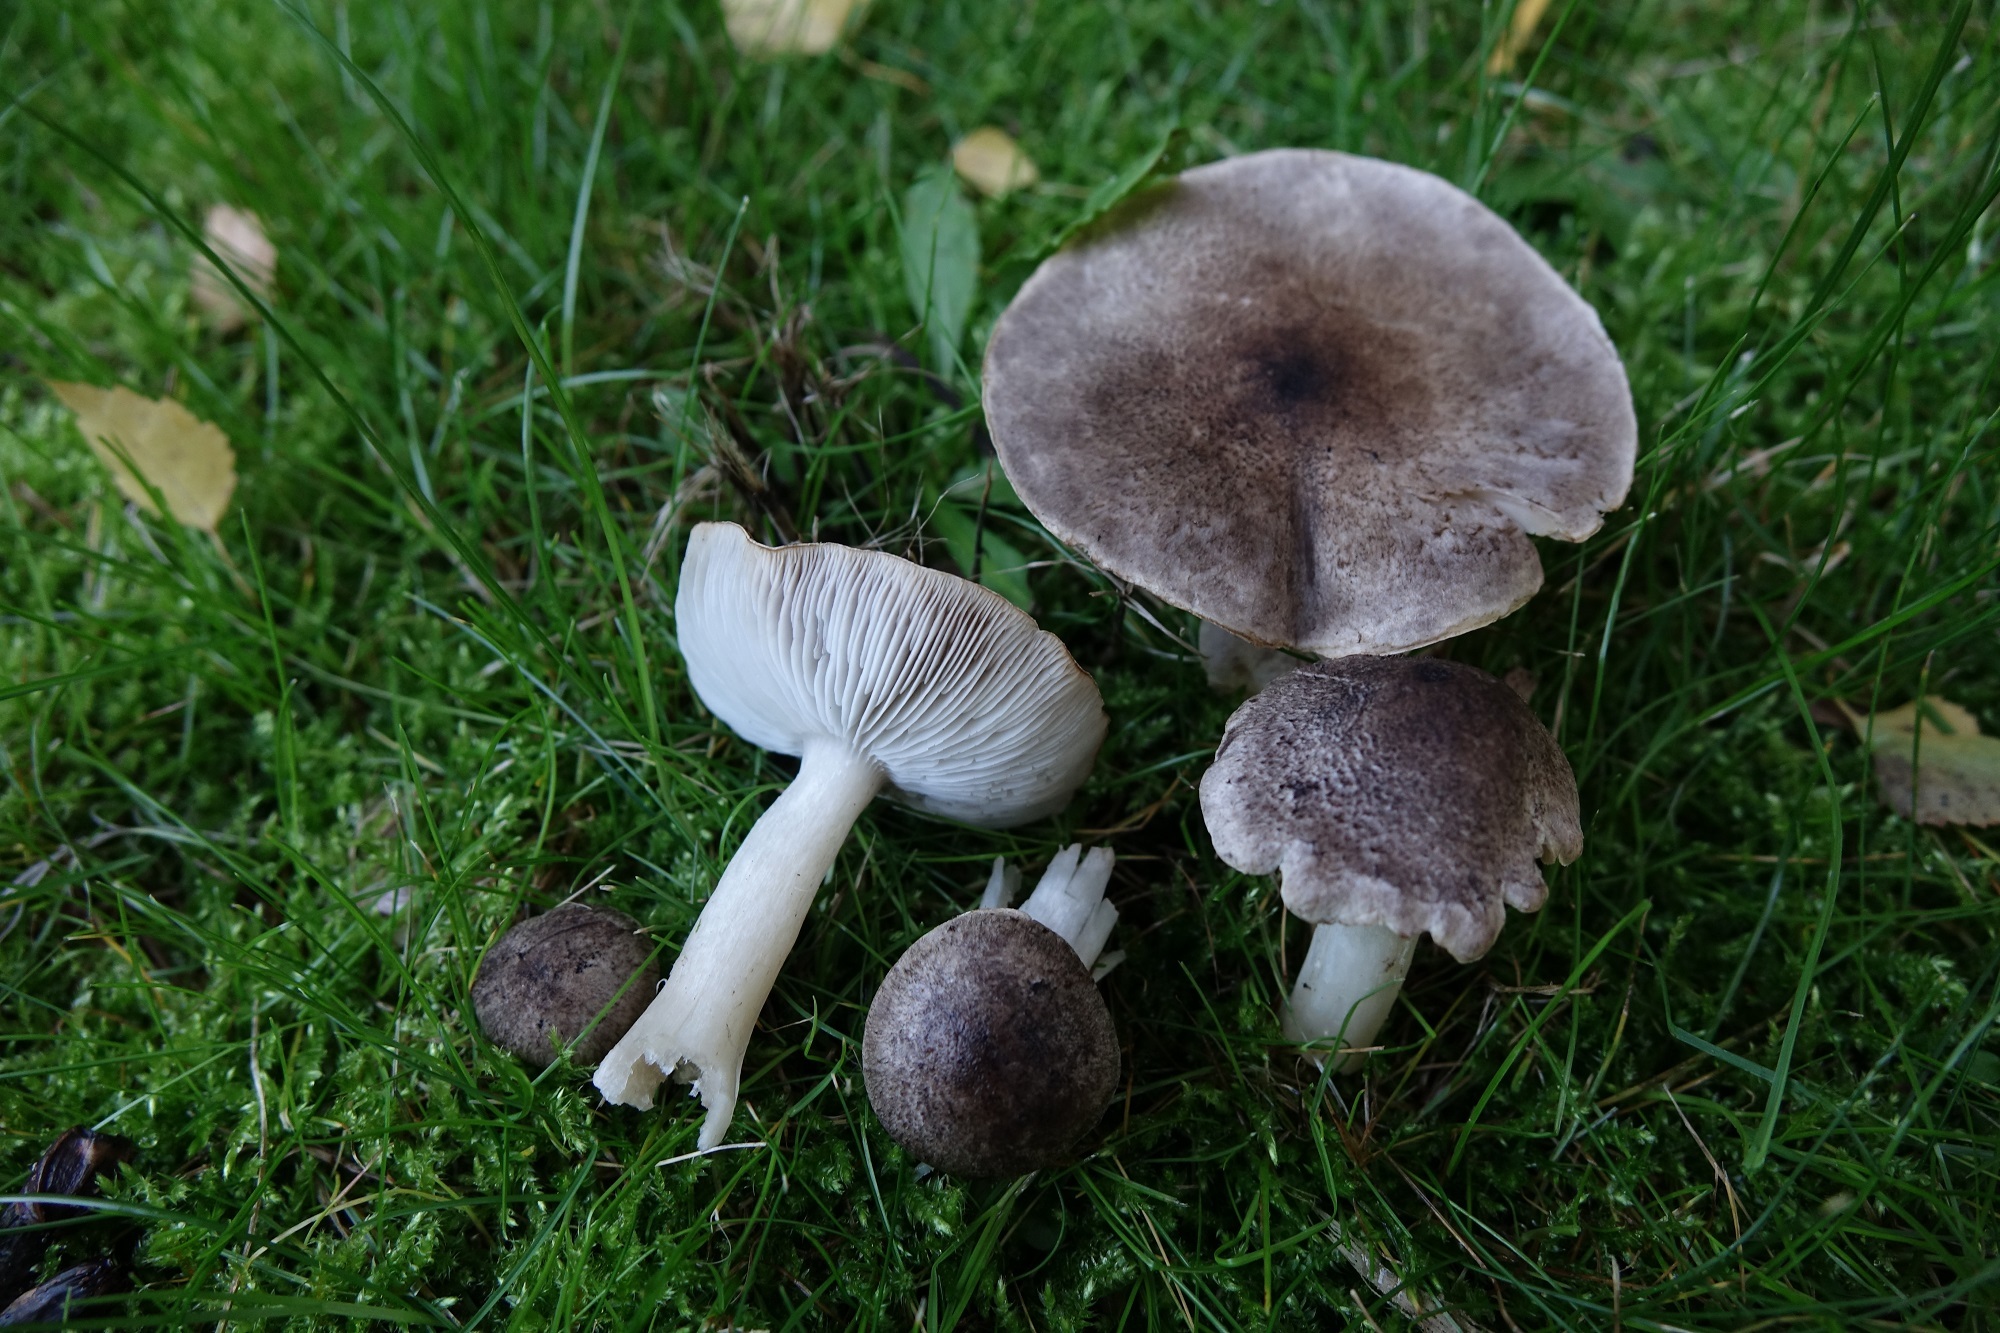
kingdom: Fungi
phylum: Basidiomycota
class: Agaricomycetes
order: Agaricales
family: Tricholomataceae
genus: Tricholoma
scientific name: Tricholoma terreum
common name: Grey knight
